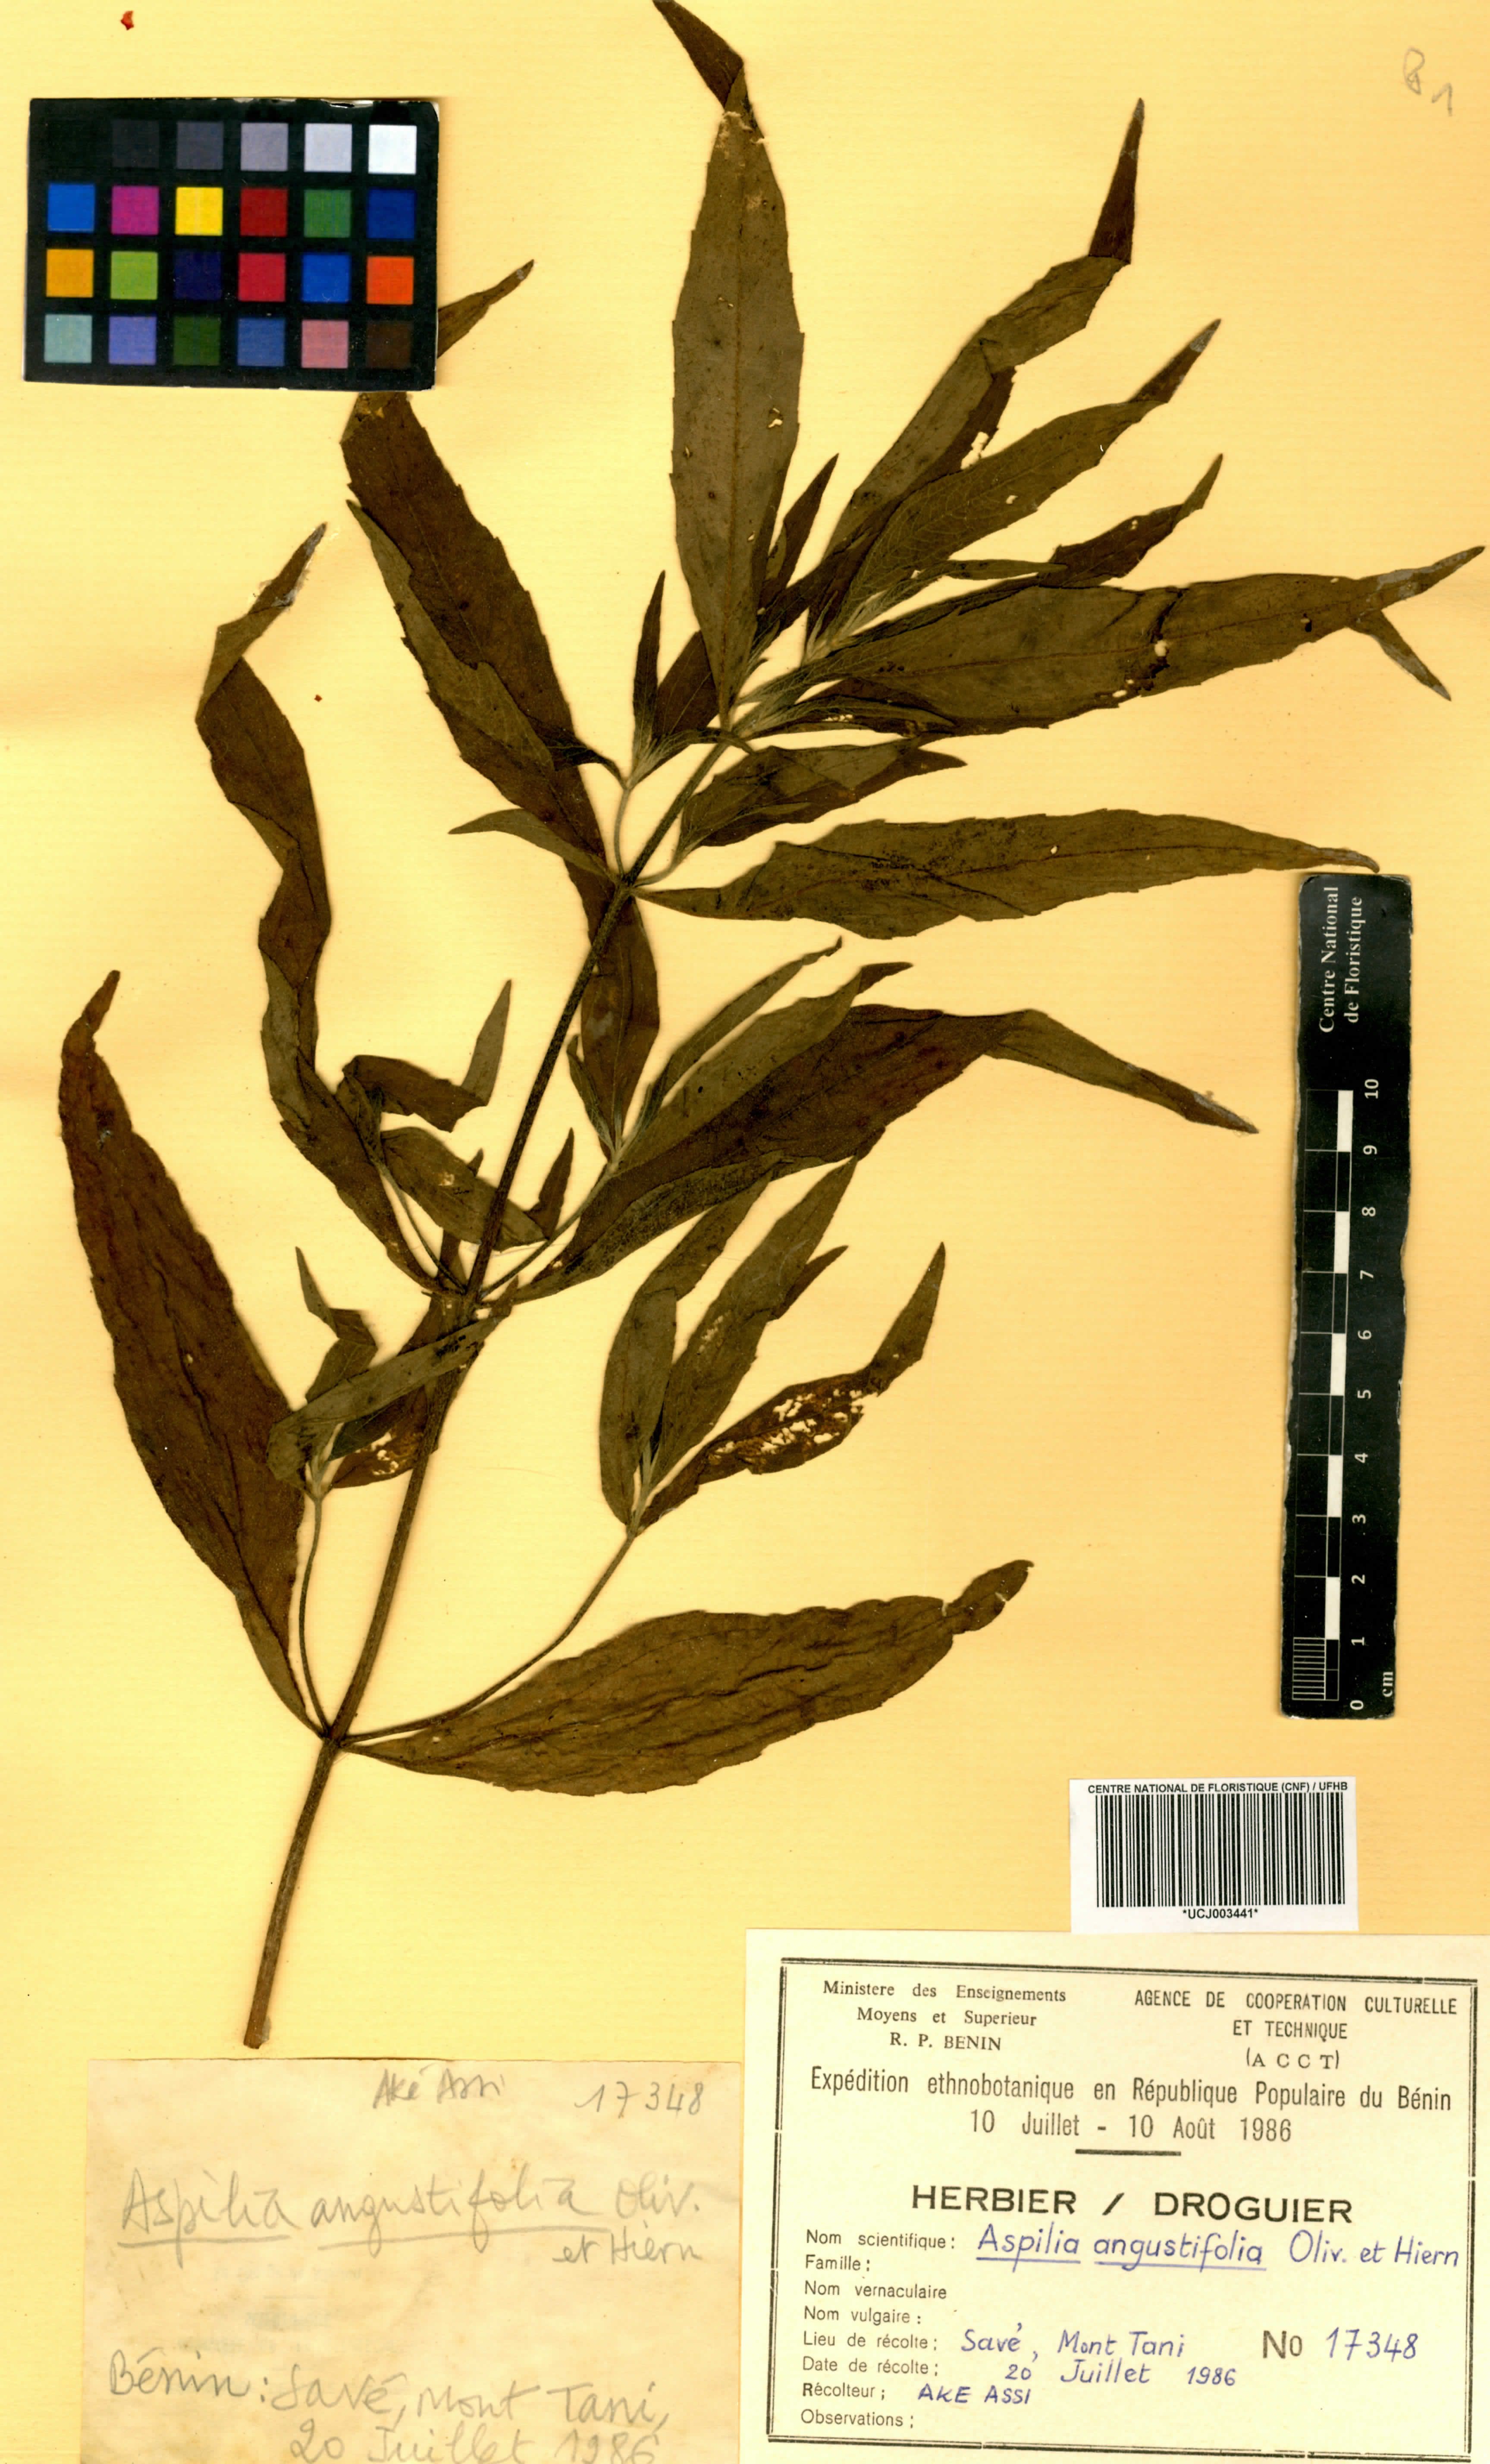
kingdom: Plantae
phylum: Tracheophyta
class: Magnoliopsida
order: Asterales
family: Asteraceae
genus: Aspilia
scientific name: Aspilia angustifolia
